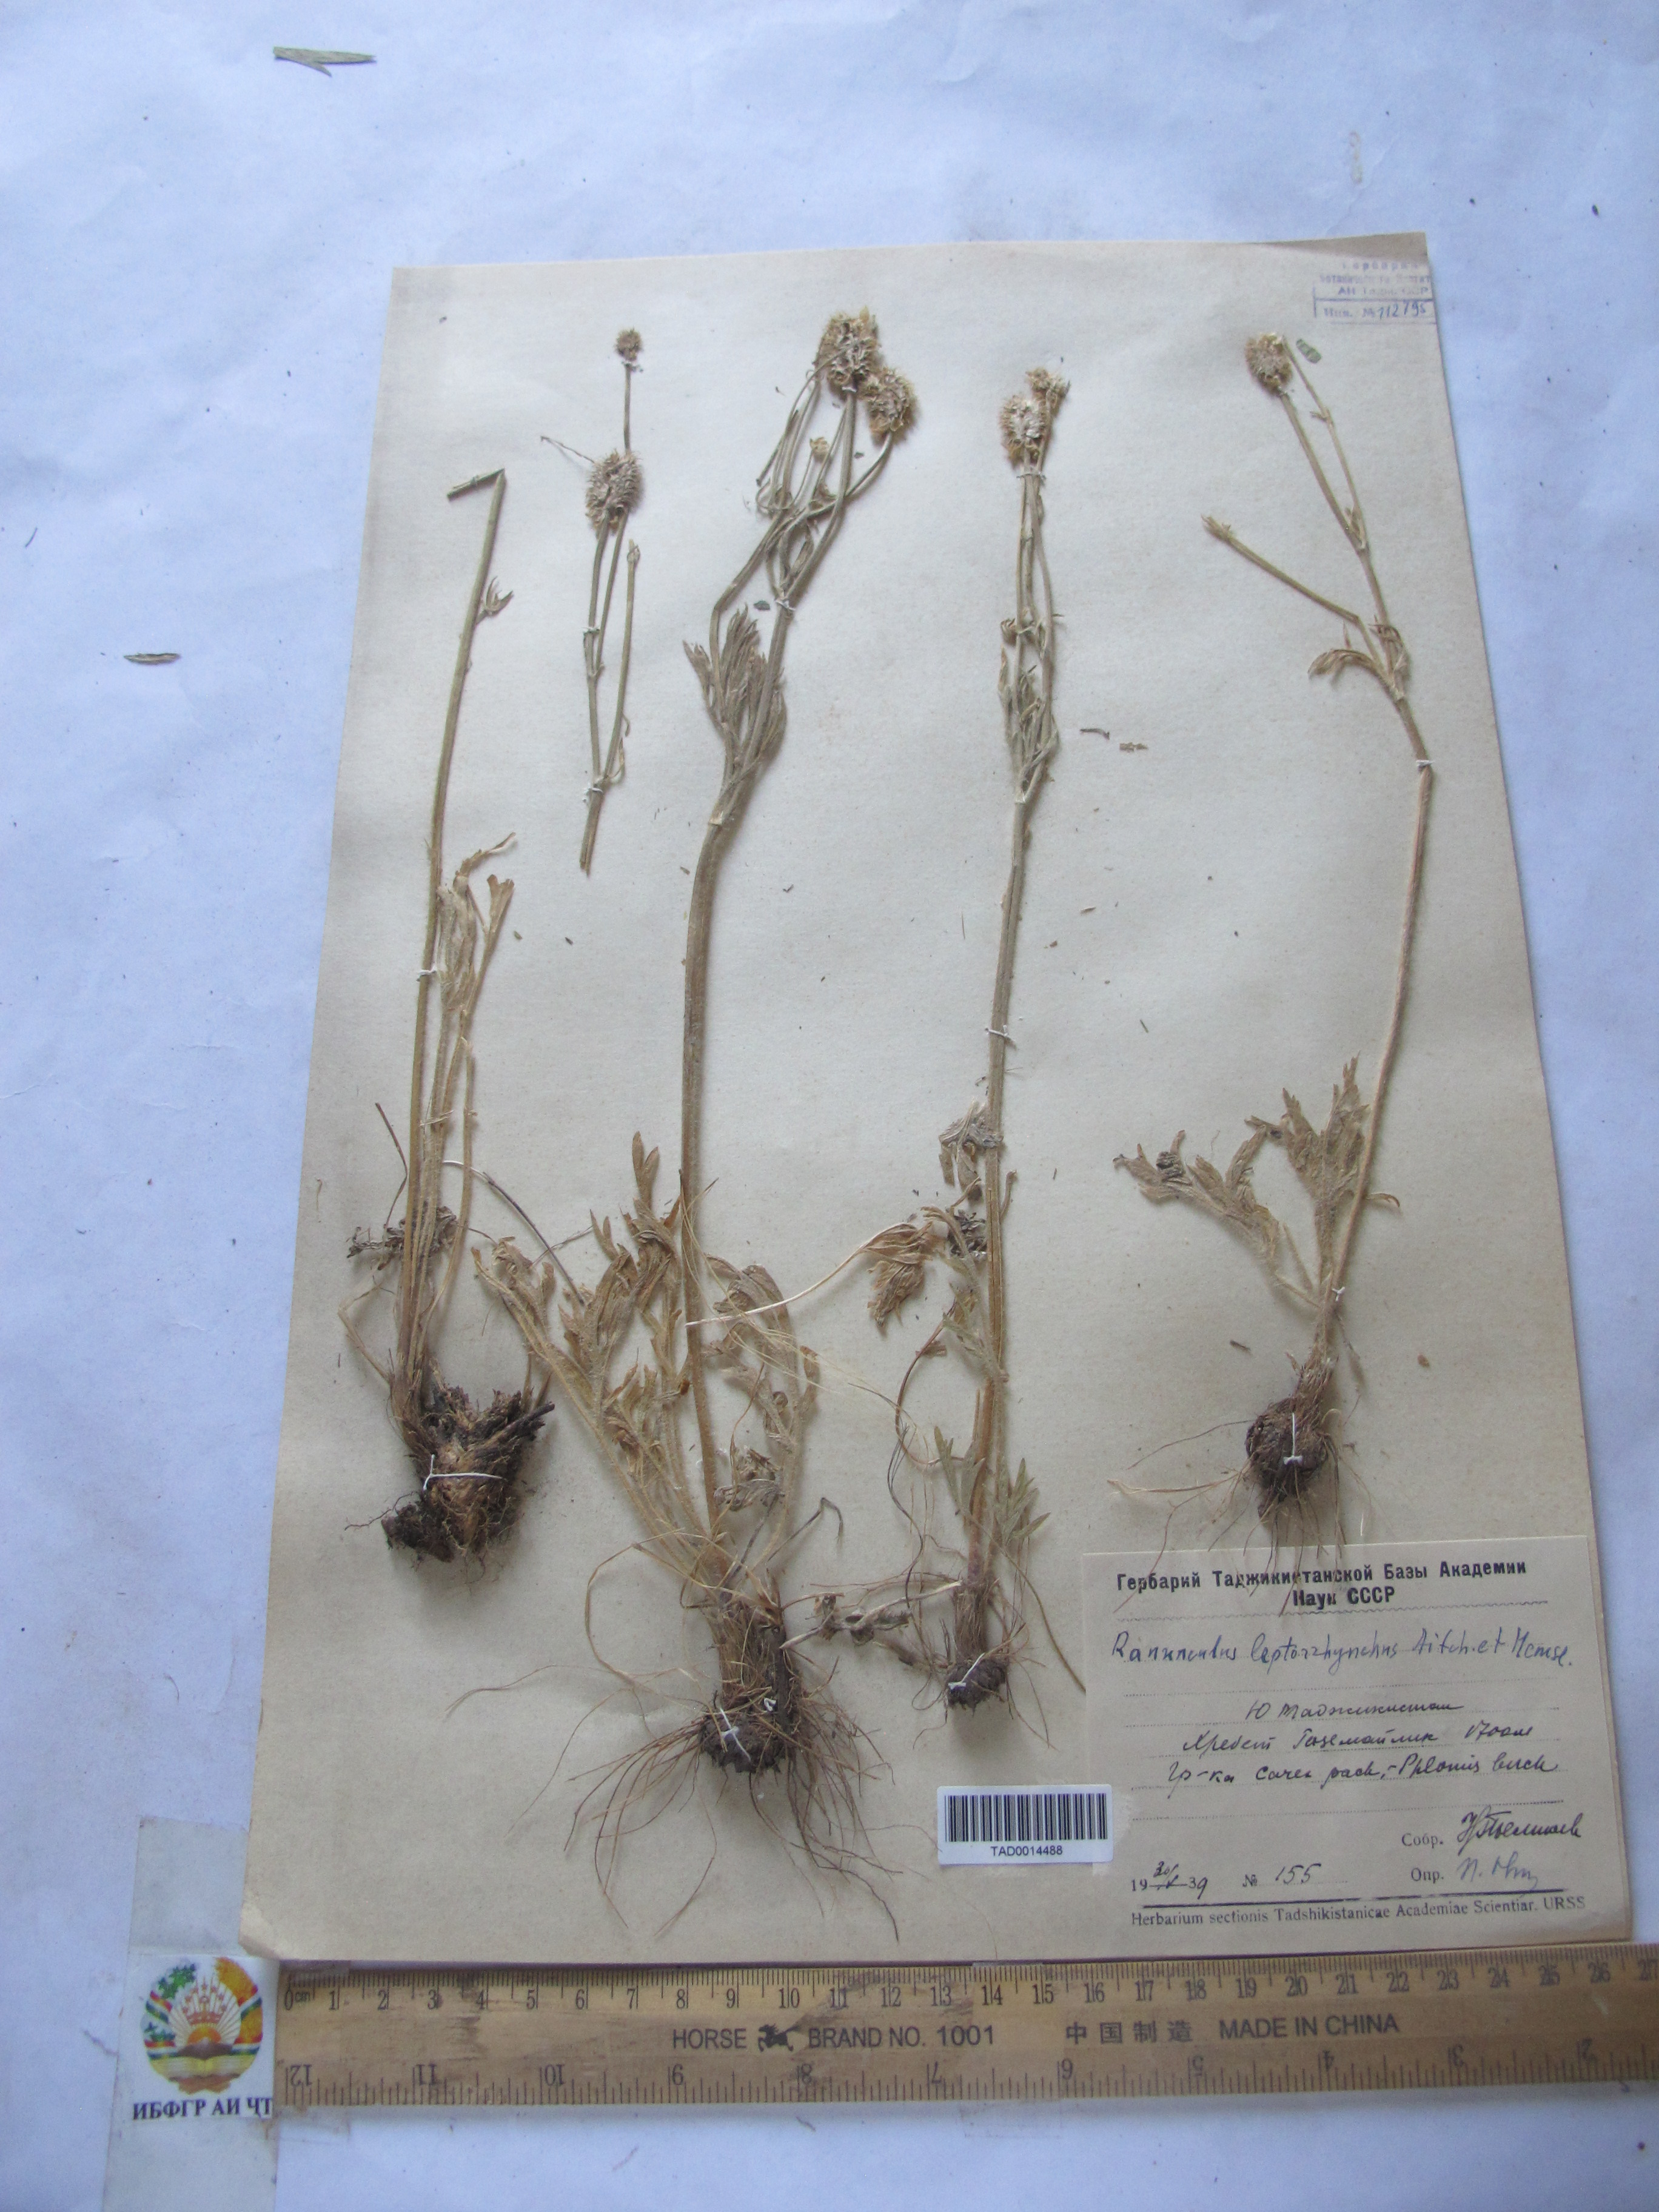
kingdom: Plantae
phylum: Tracheophyta
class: Magnoliopsida
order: Ranunculales
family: Ranunculaceae
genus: Ranunculus
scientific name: Ranunculus leptorrhynchus
